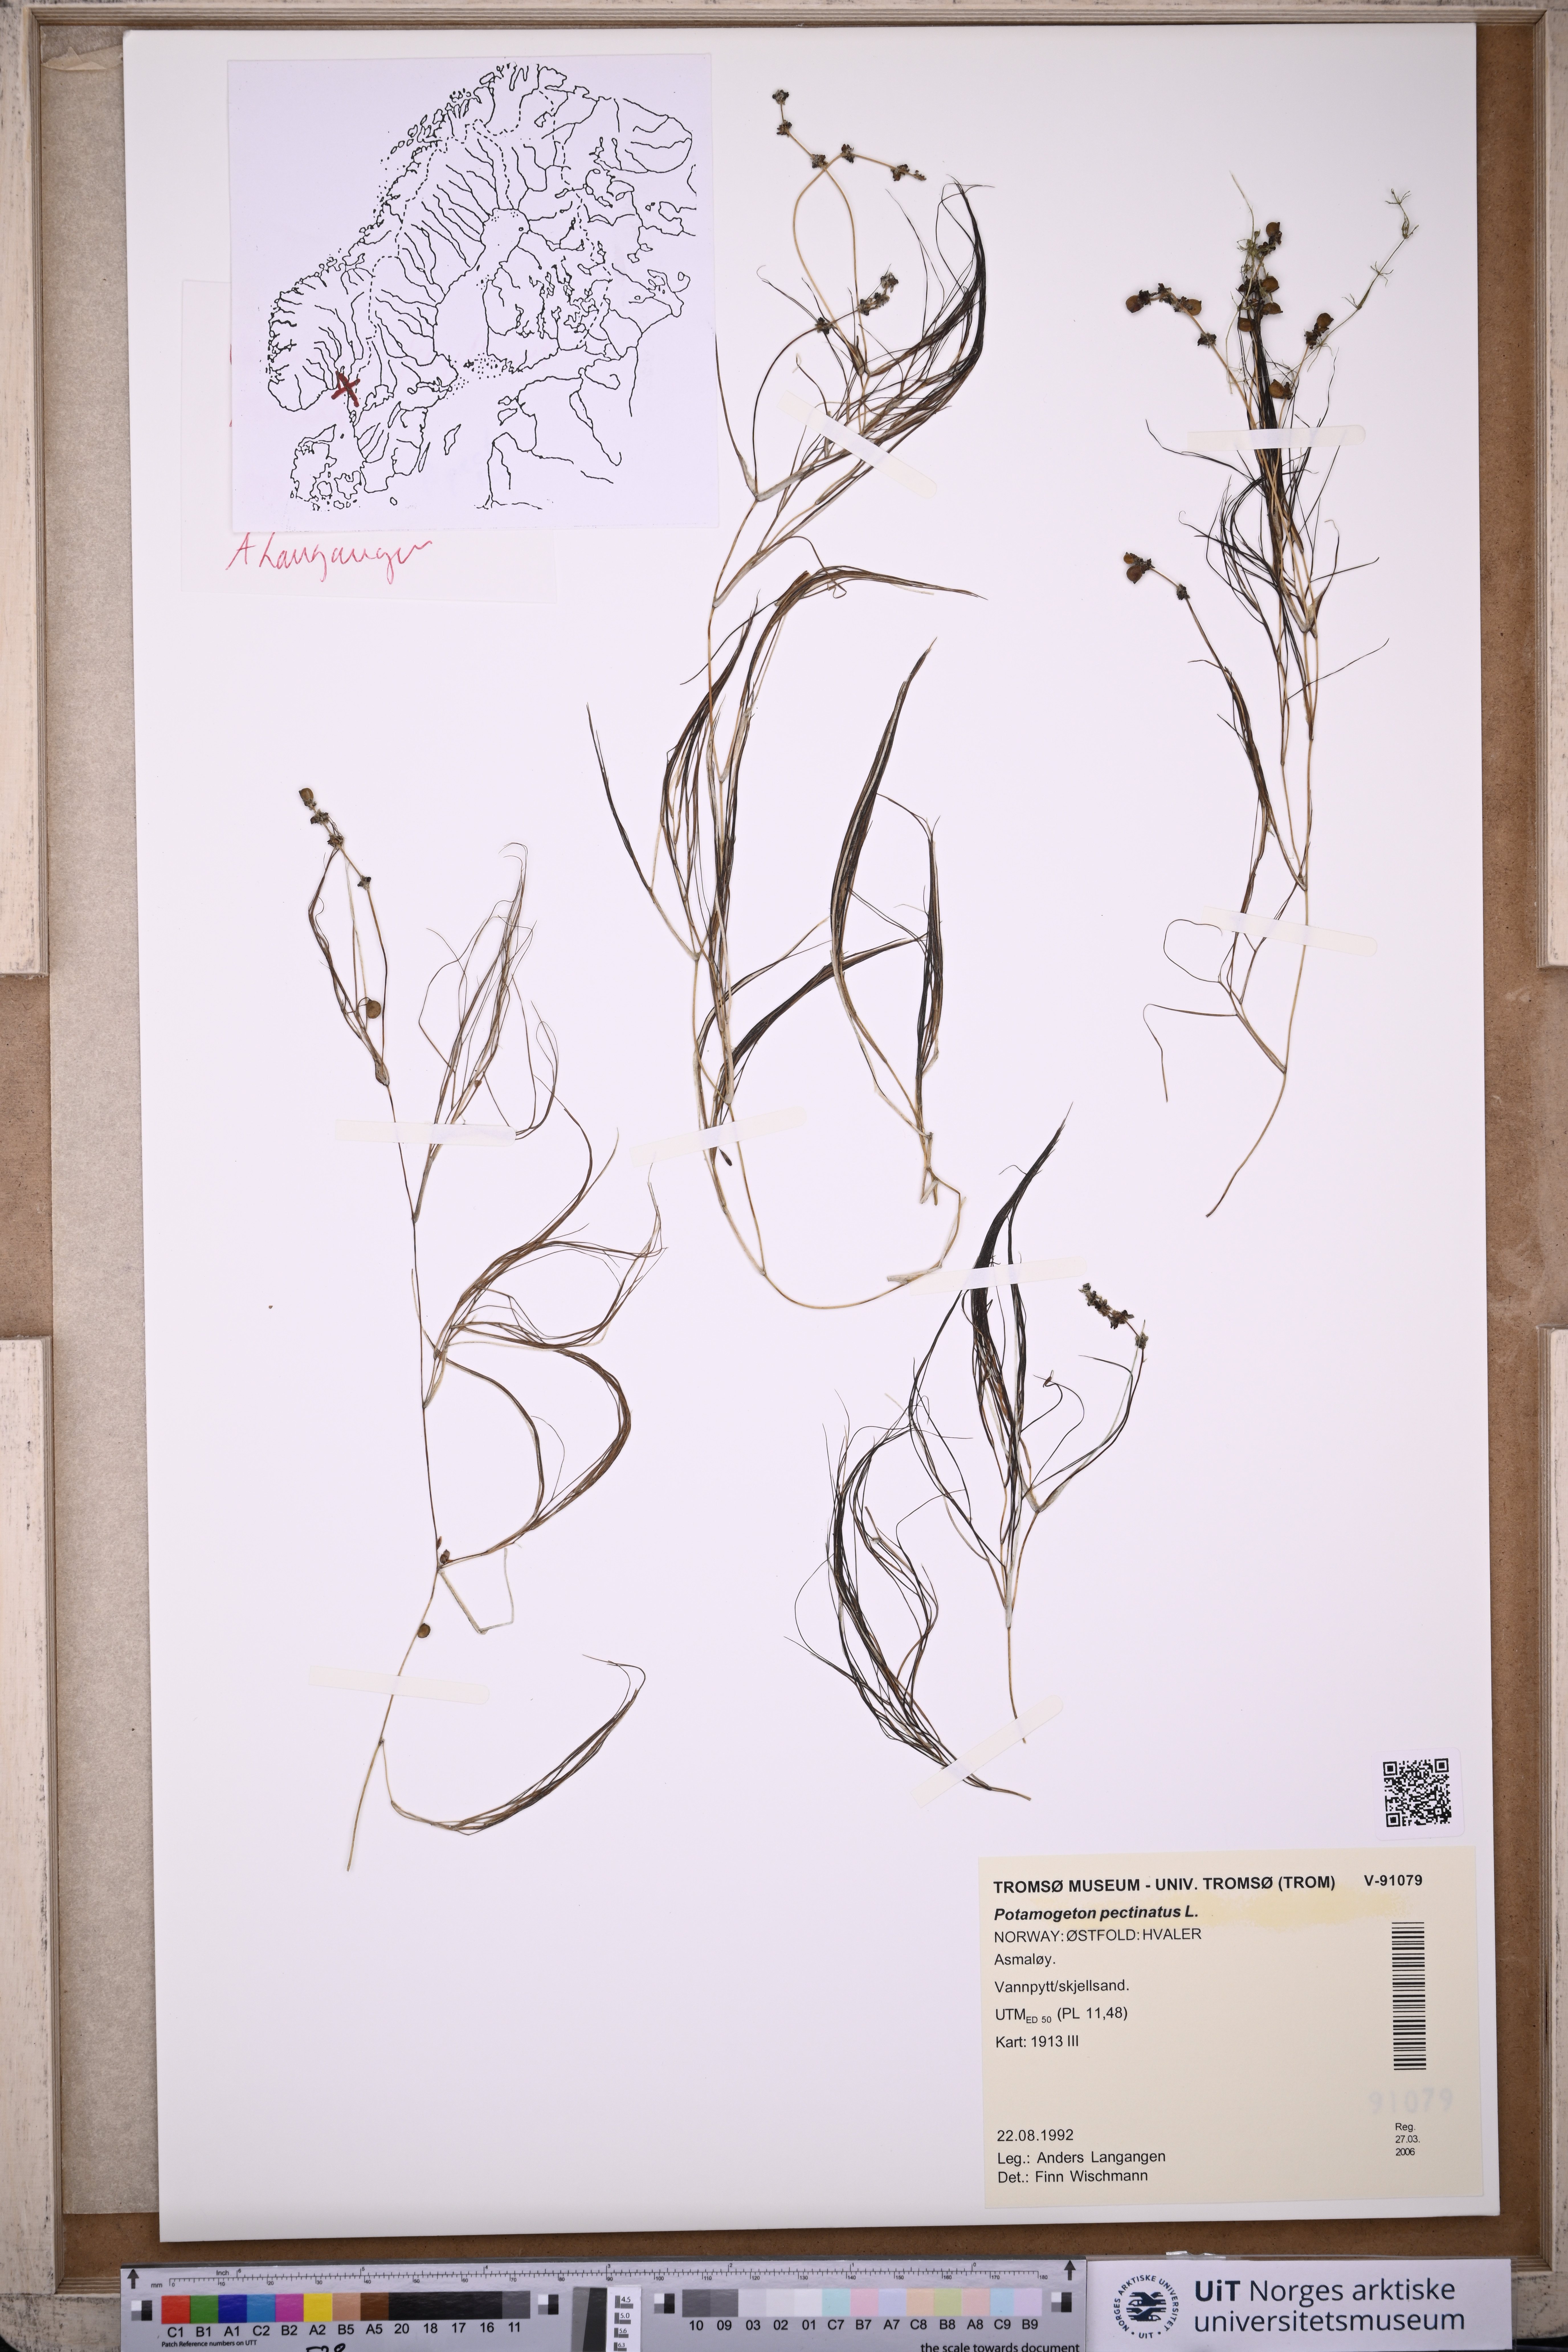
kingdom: Plantae
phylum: Tracheophyta
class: Liliopsida
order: Alismatales
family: Potamogetonaceae
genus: Stuckenia
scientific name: Stuckenia pectinata
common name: Sago pondweed
